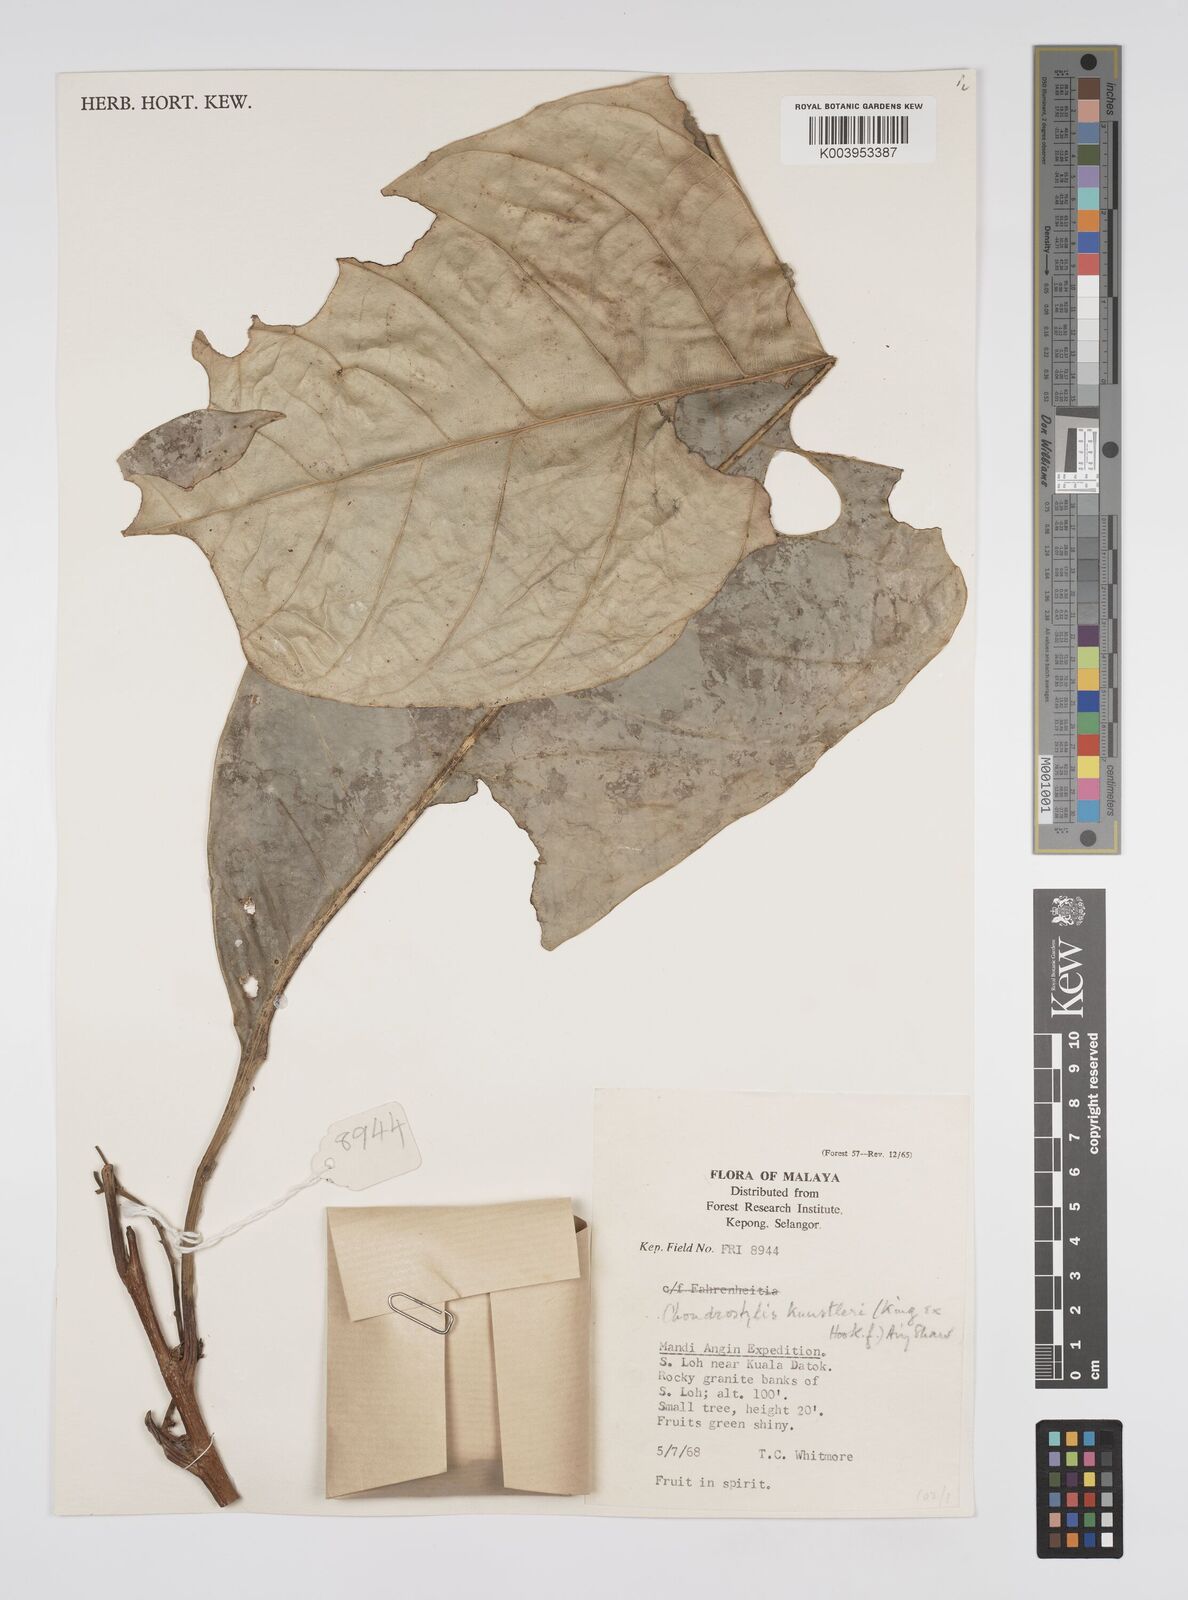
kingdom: Plantae
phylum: Tracheophyta
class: Magnoliopsida
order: Malpighiales
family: Euphorbiaceae
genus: Chondrostylis
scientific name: Chondrostylis kunstleri
